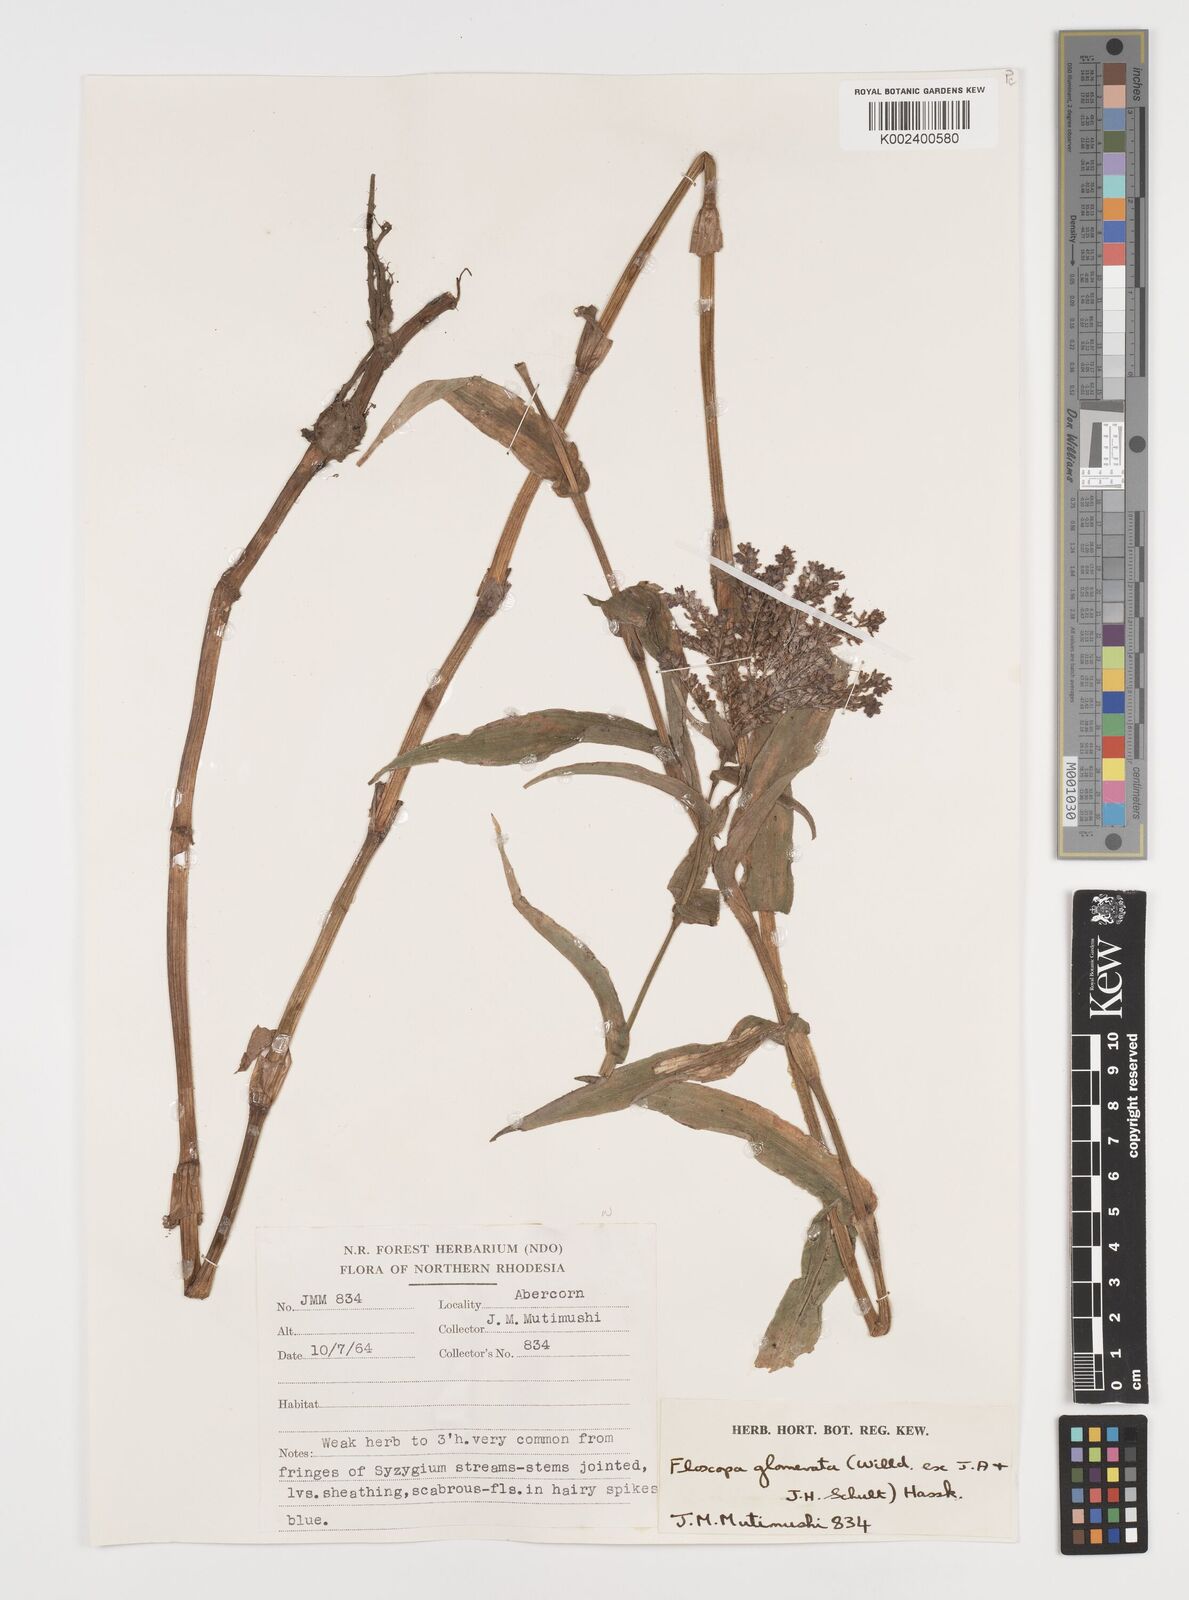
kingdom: Plantae
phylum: Tracheophyta
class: Liliopsida
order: Commelinales
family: Commelinaceae
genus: Floscopa
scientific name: Floscopa glomerata
